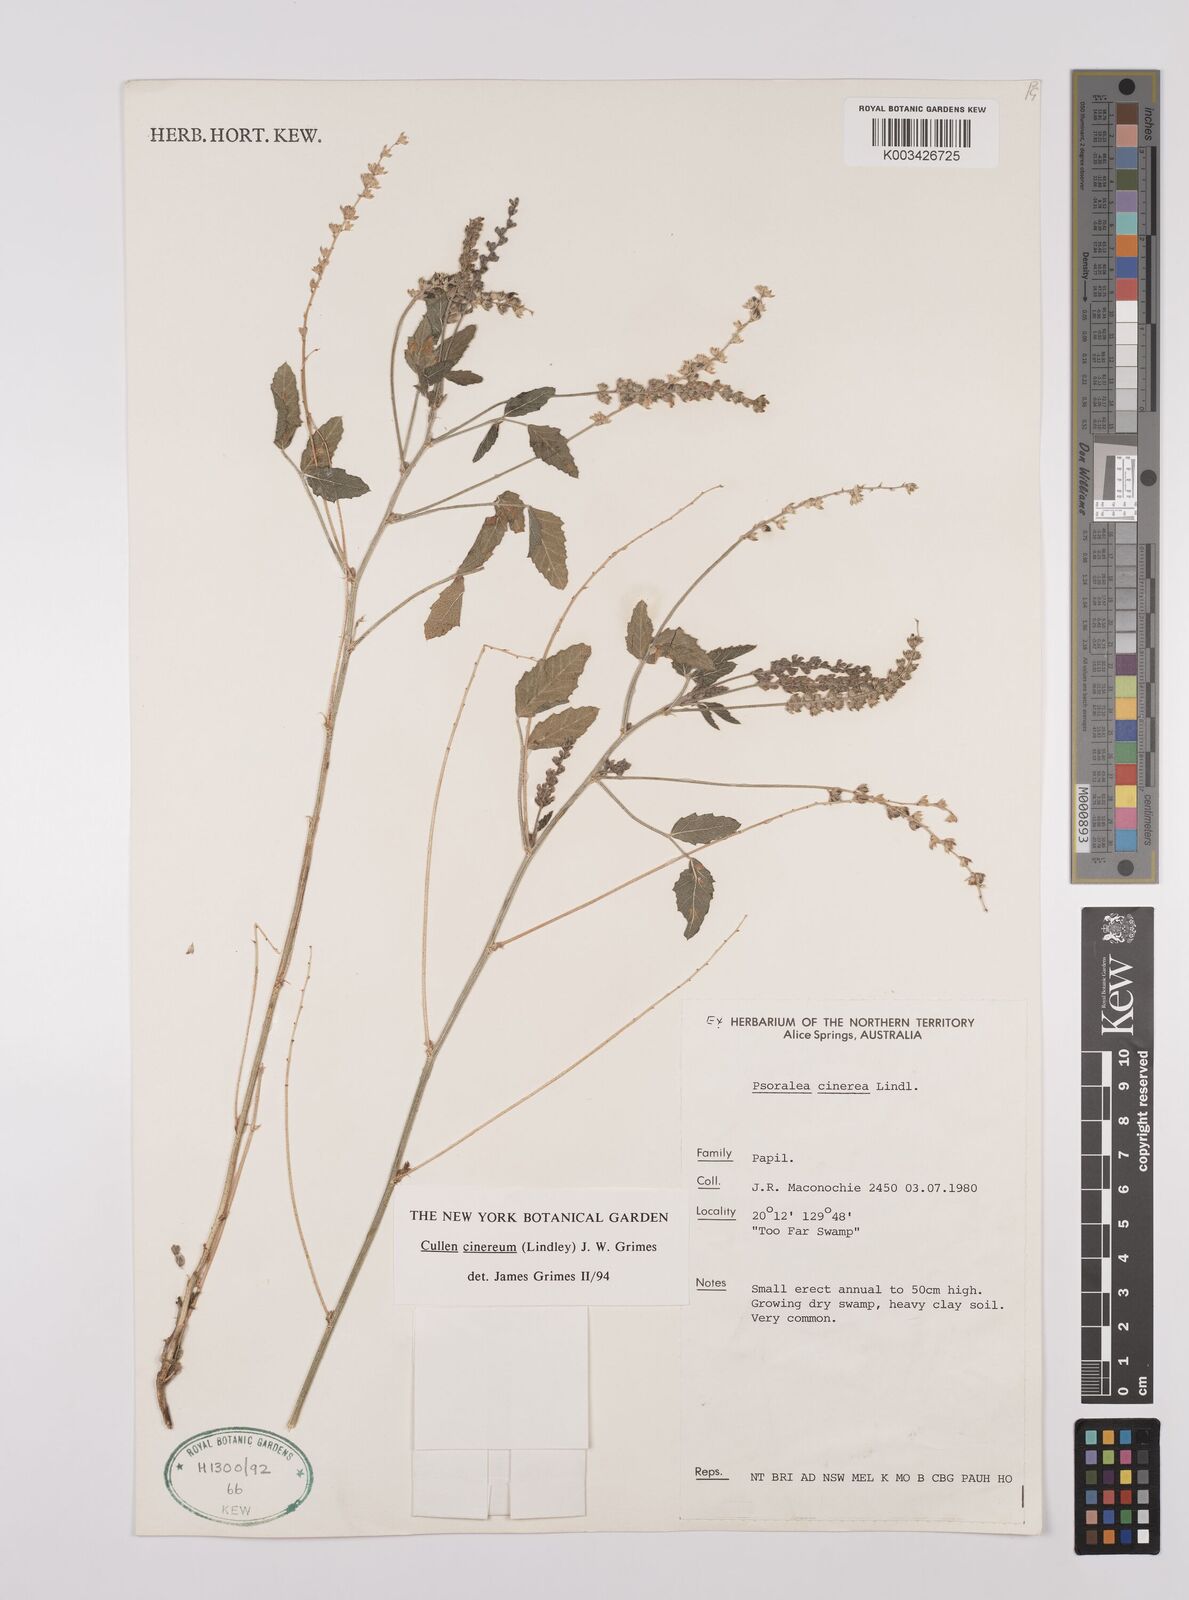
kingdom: Plantae
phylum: Tracheophyta
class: Magnoliopsida
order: Fabales
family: Fabaceae
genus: Cullen
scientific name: Cullen cinereum
